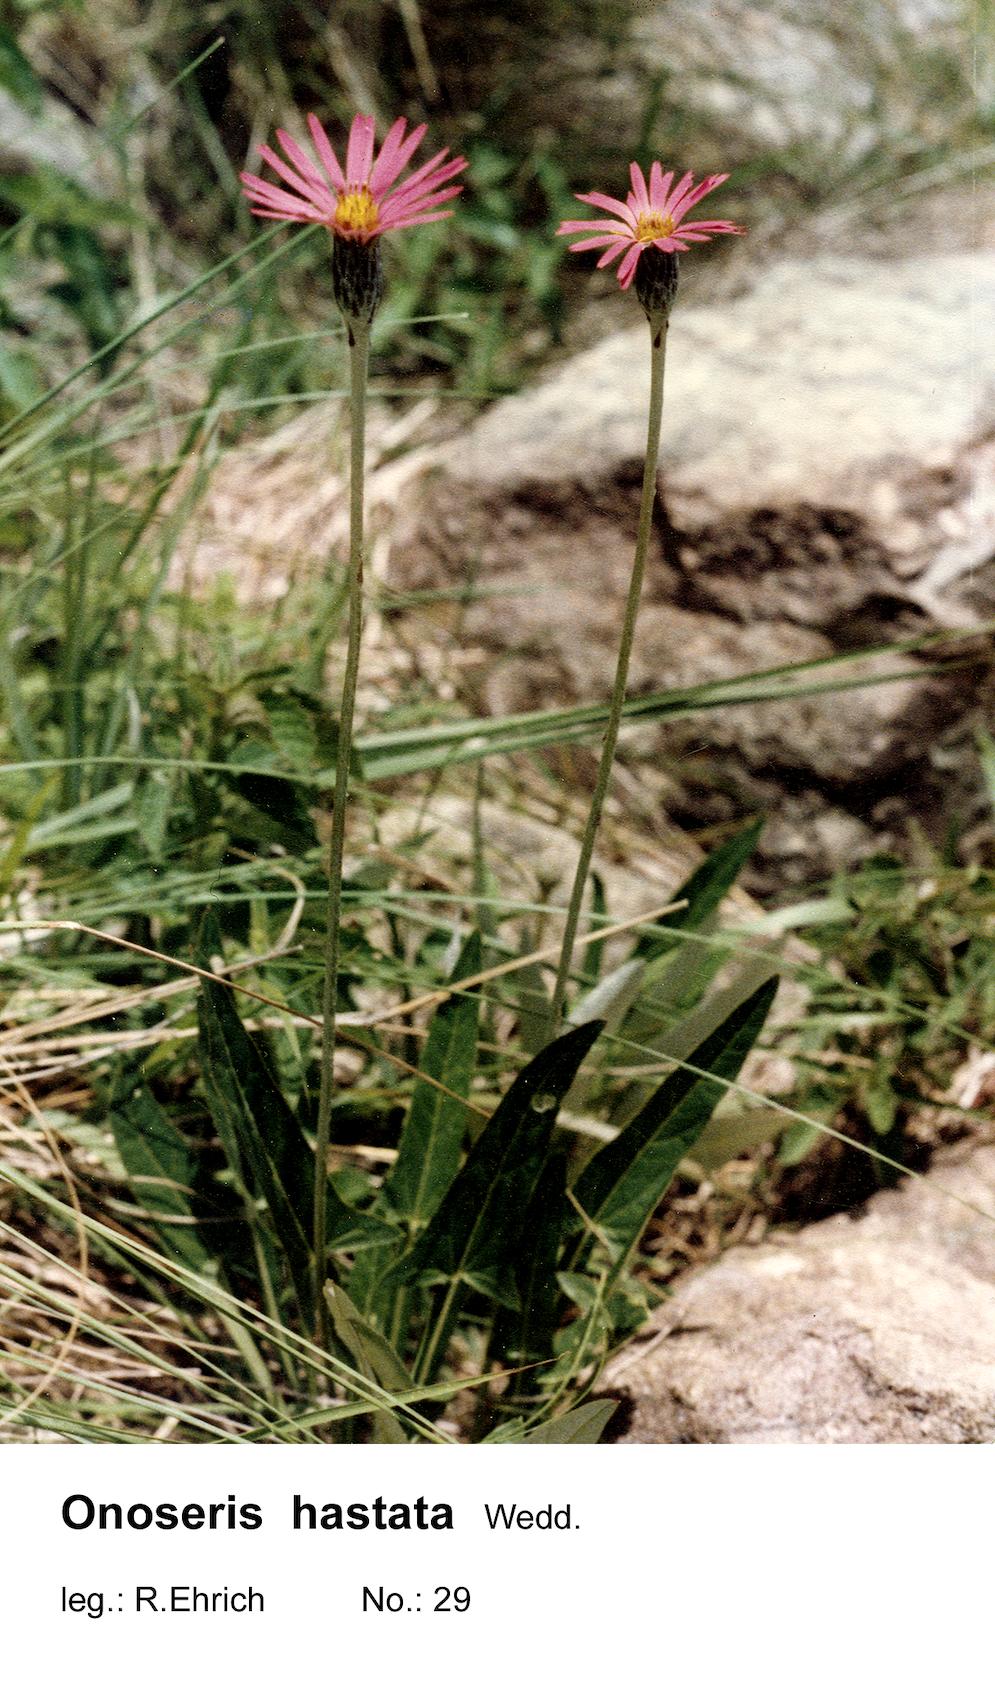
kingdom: Plantae
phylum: Tracheophyta
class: Magnoliopsida
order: Asterales
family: Asteraceae
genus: Onoseris
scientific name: Onoseris hastata
